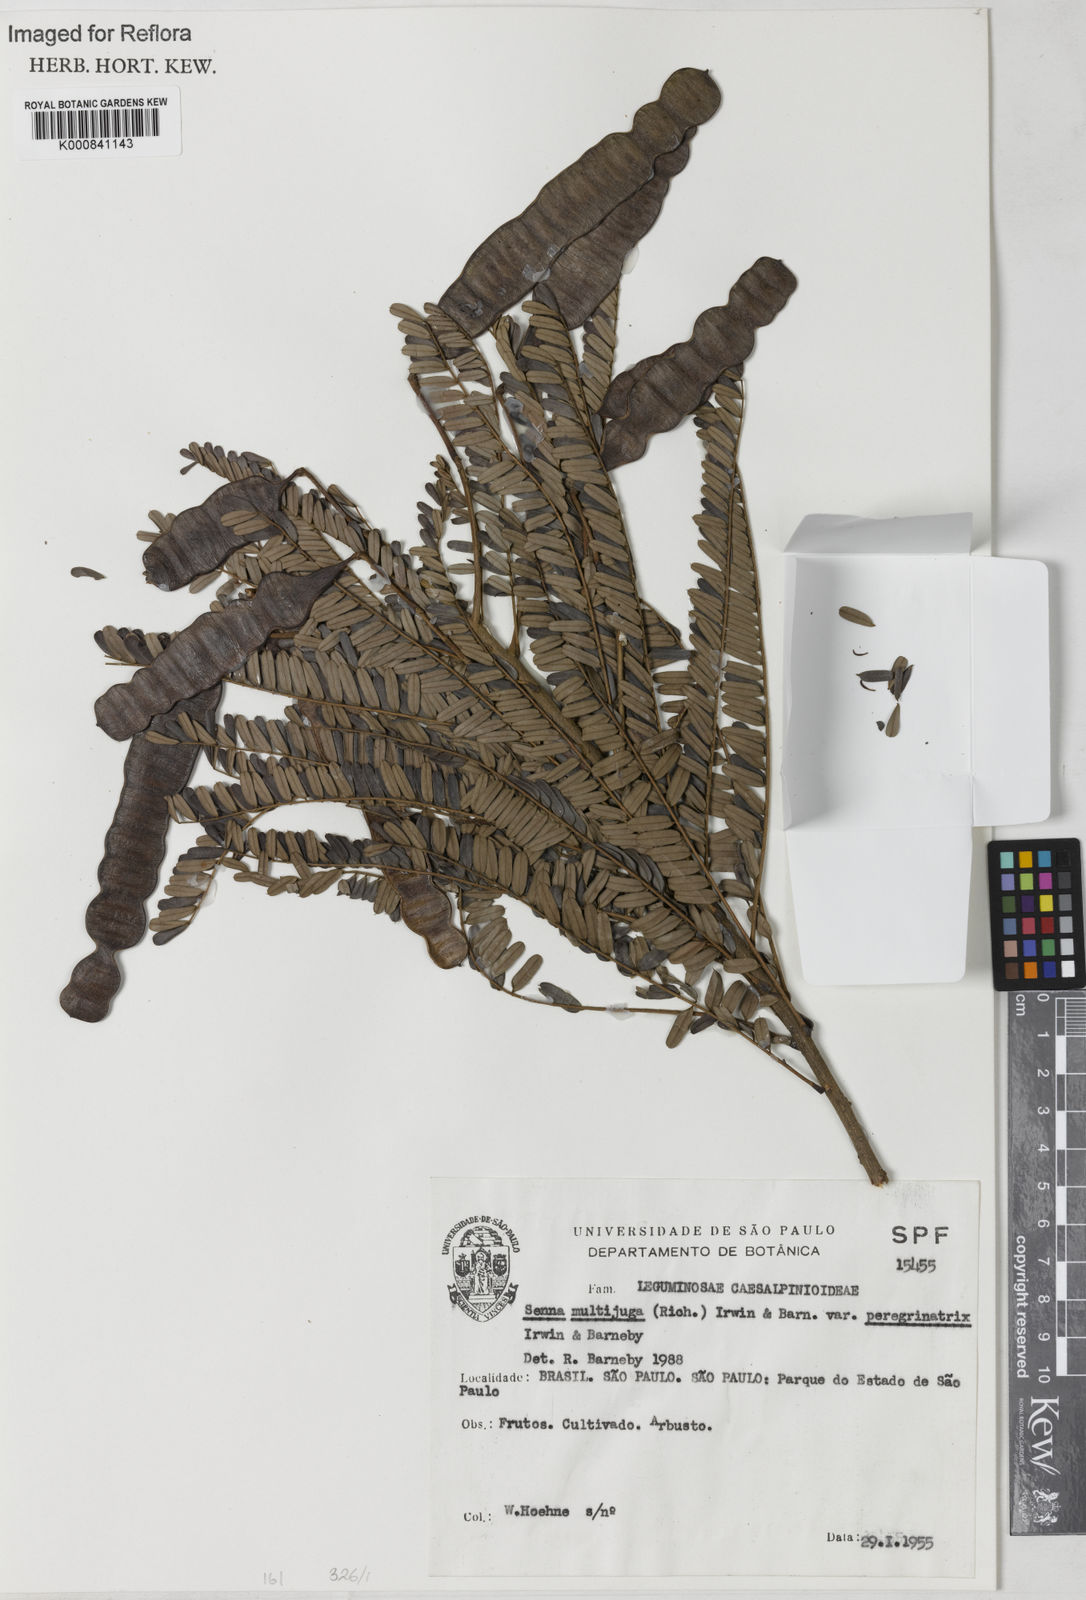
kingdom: Plantae
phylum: Tracheophyta
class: Magnoliopsida
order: Fabales
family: Fabaceae
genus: Senna
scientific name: Senna multijuga
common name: False sicklepod
